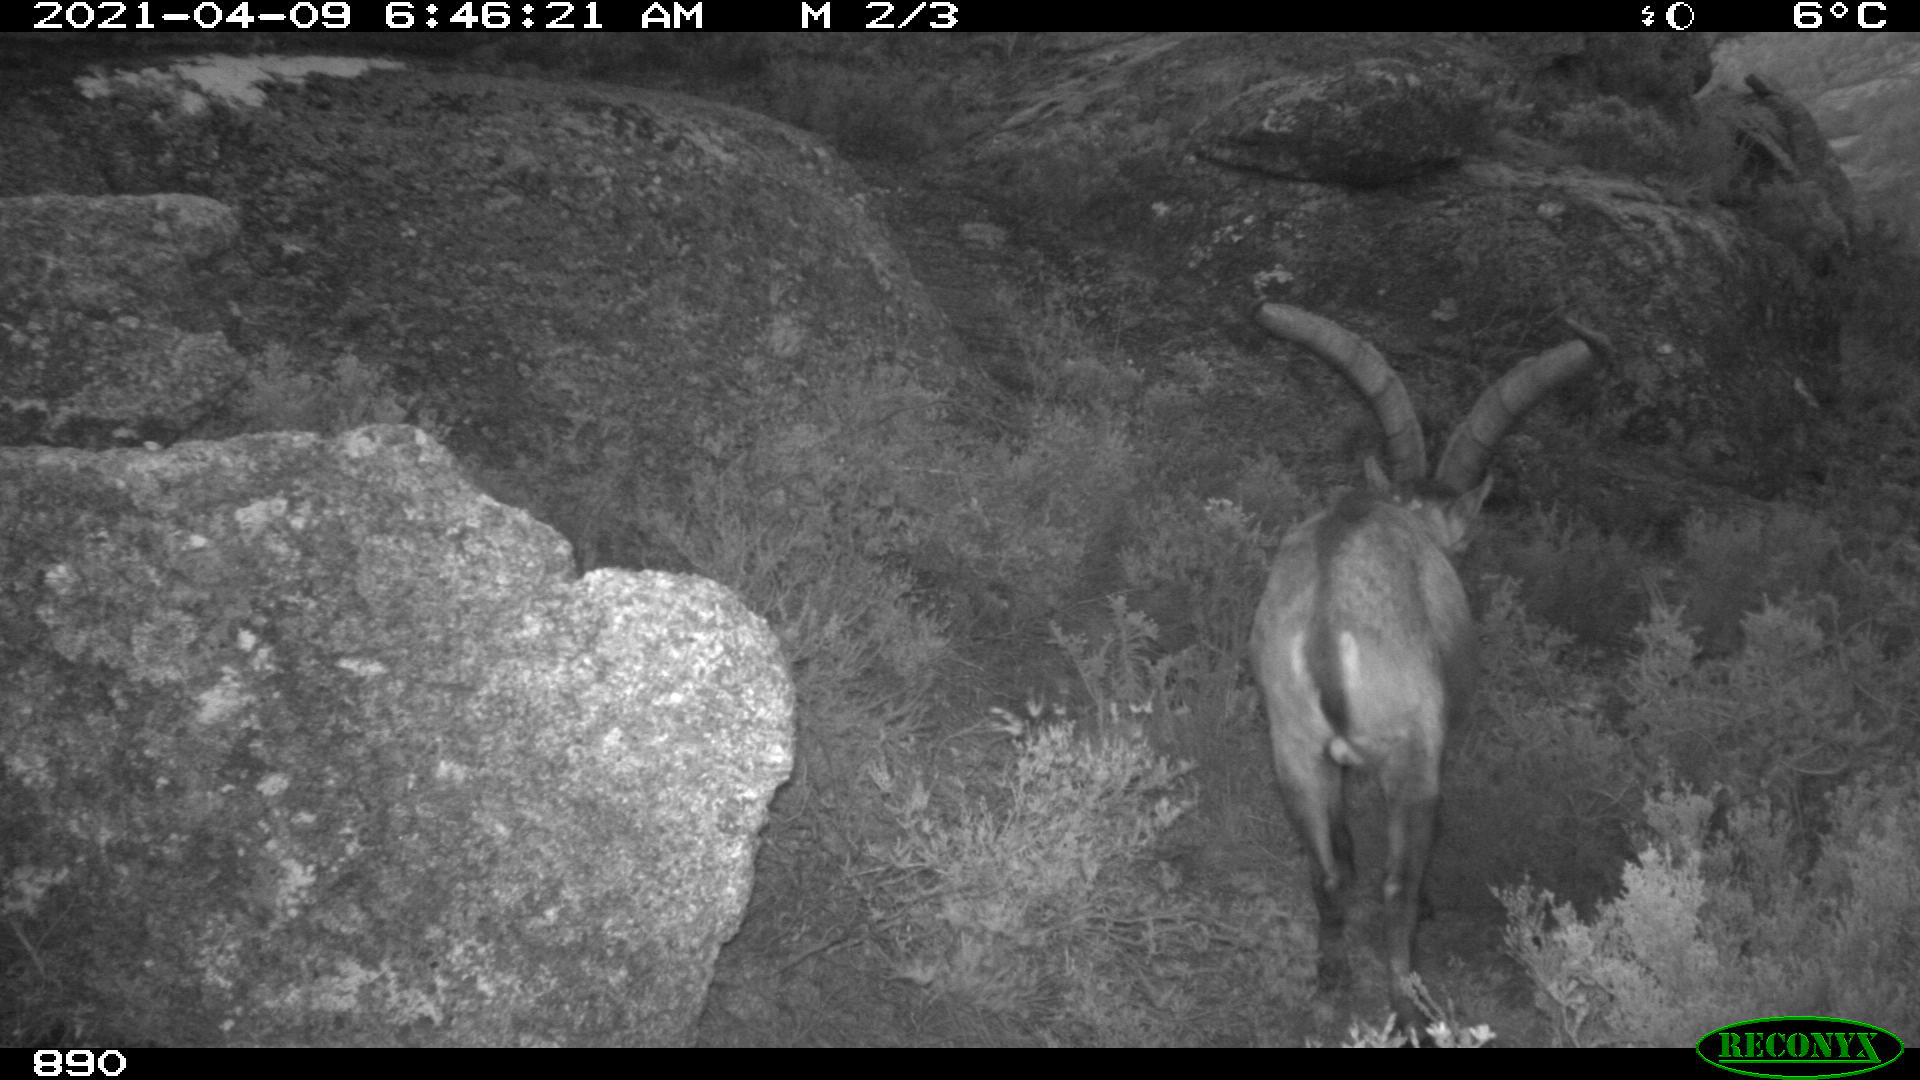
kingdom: Animalia
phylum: Chordata
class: Mammalia
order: Artiodactyla
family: Bovidae
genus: Capra
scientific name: Capra pyrenaica
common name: Spanish ibex
